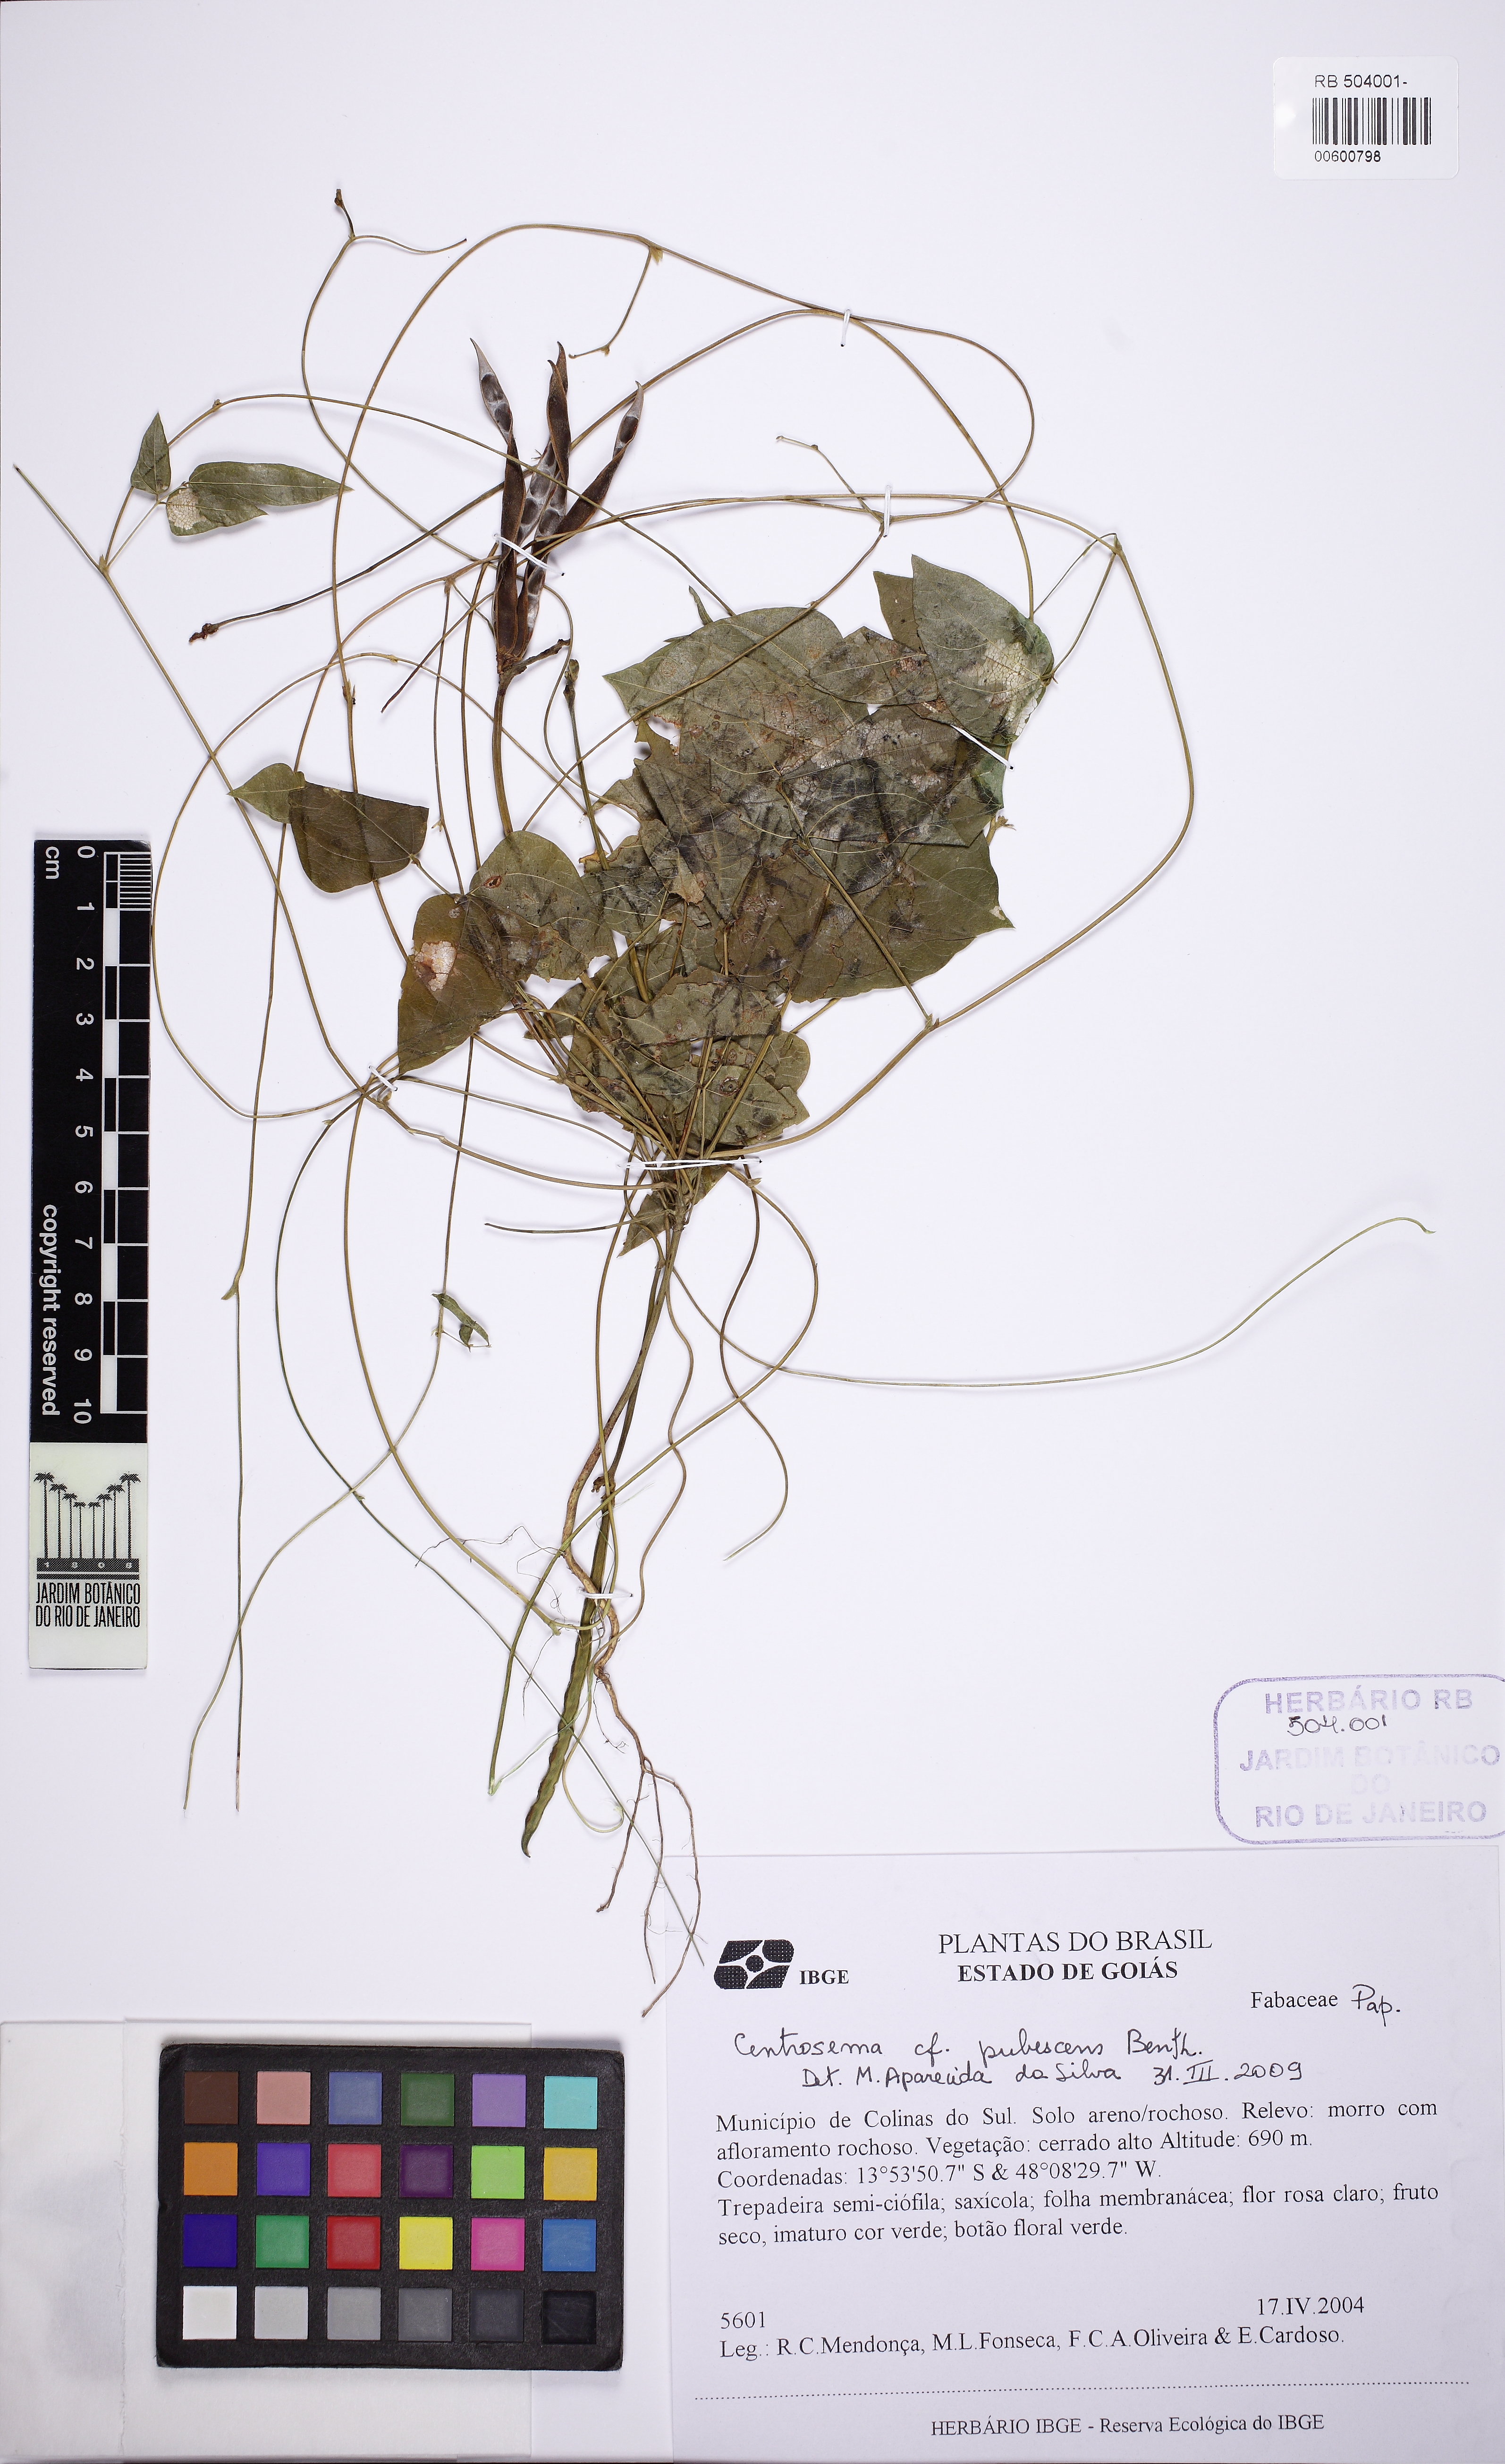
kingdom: Plantae
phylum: Tracheophyta
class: Magnoliopsida
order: Fabales
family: Fabaceae
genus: Centrosema
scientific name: Centrosema pubescens
